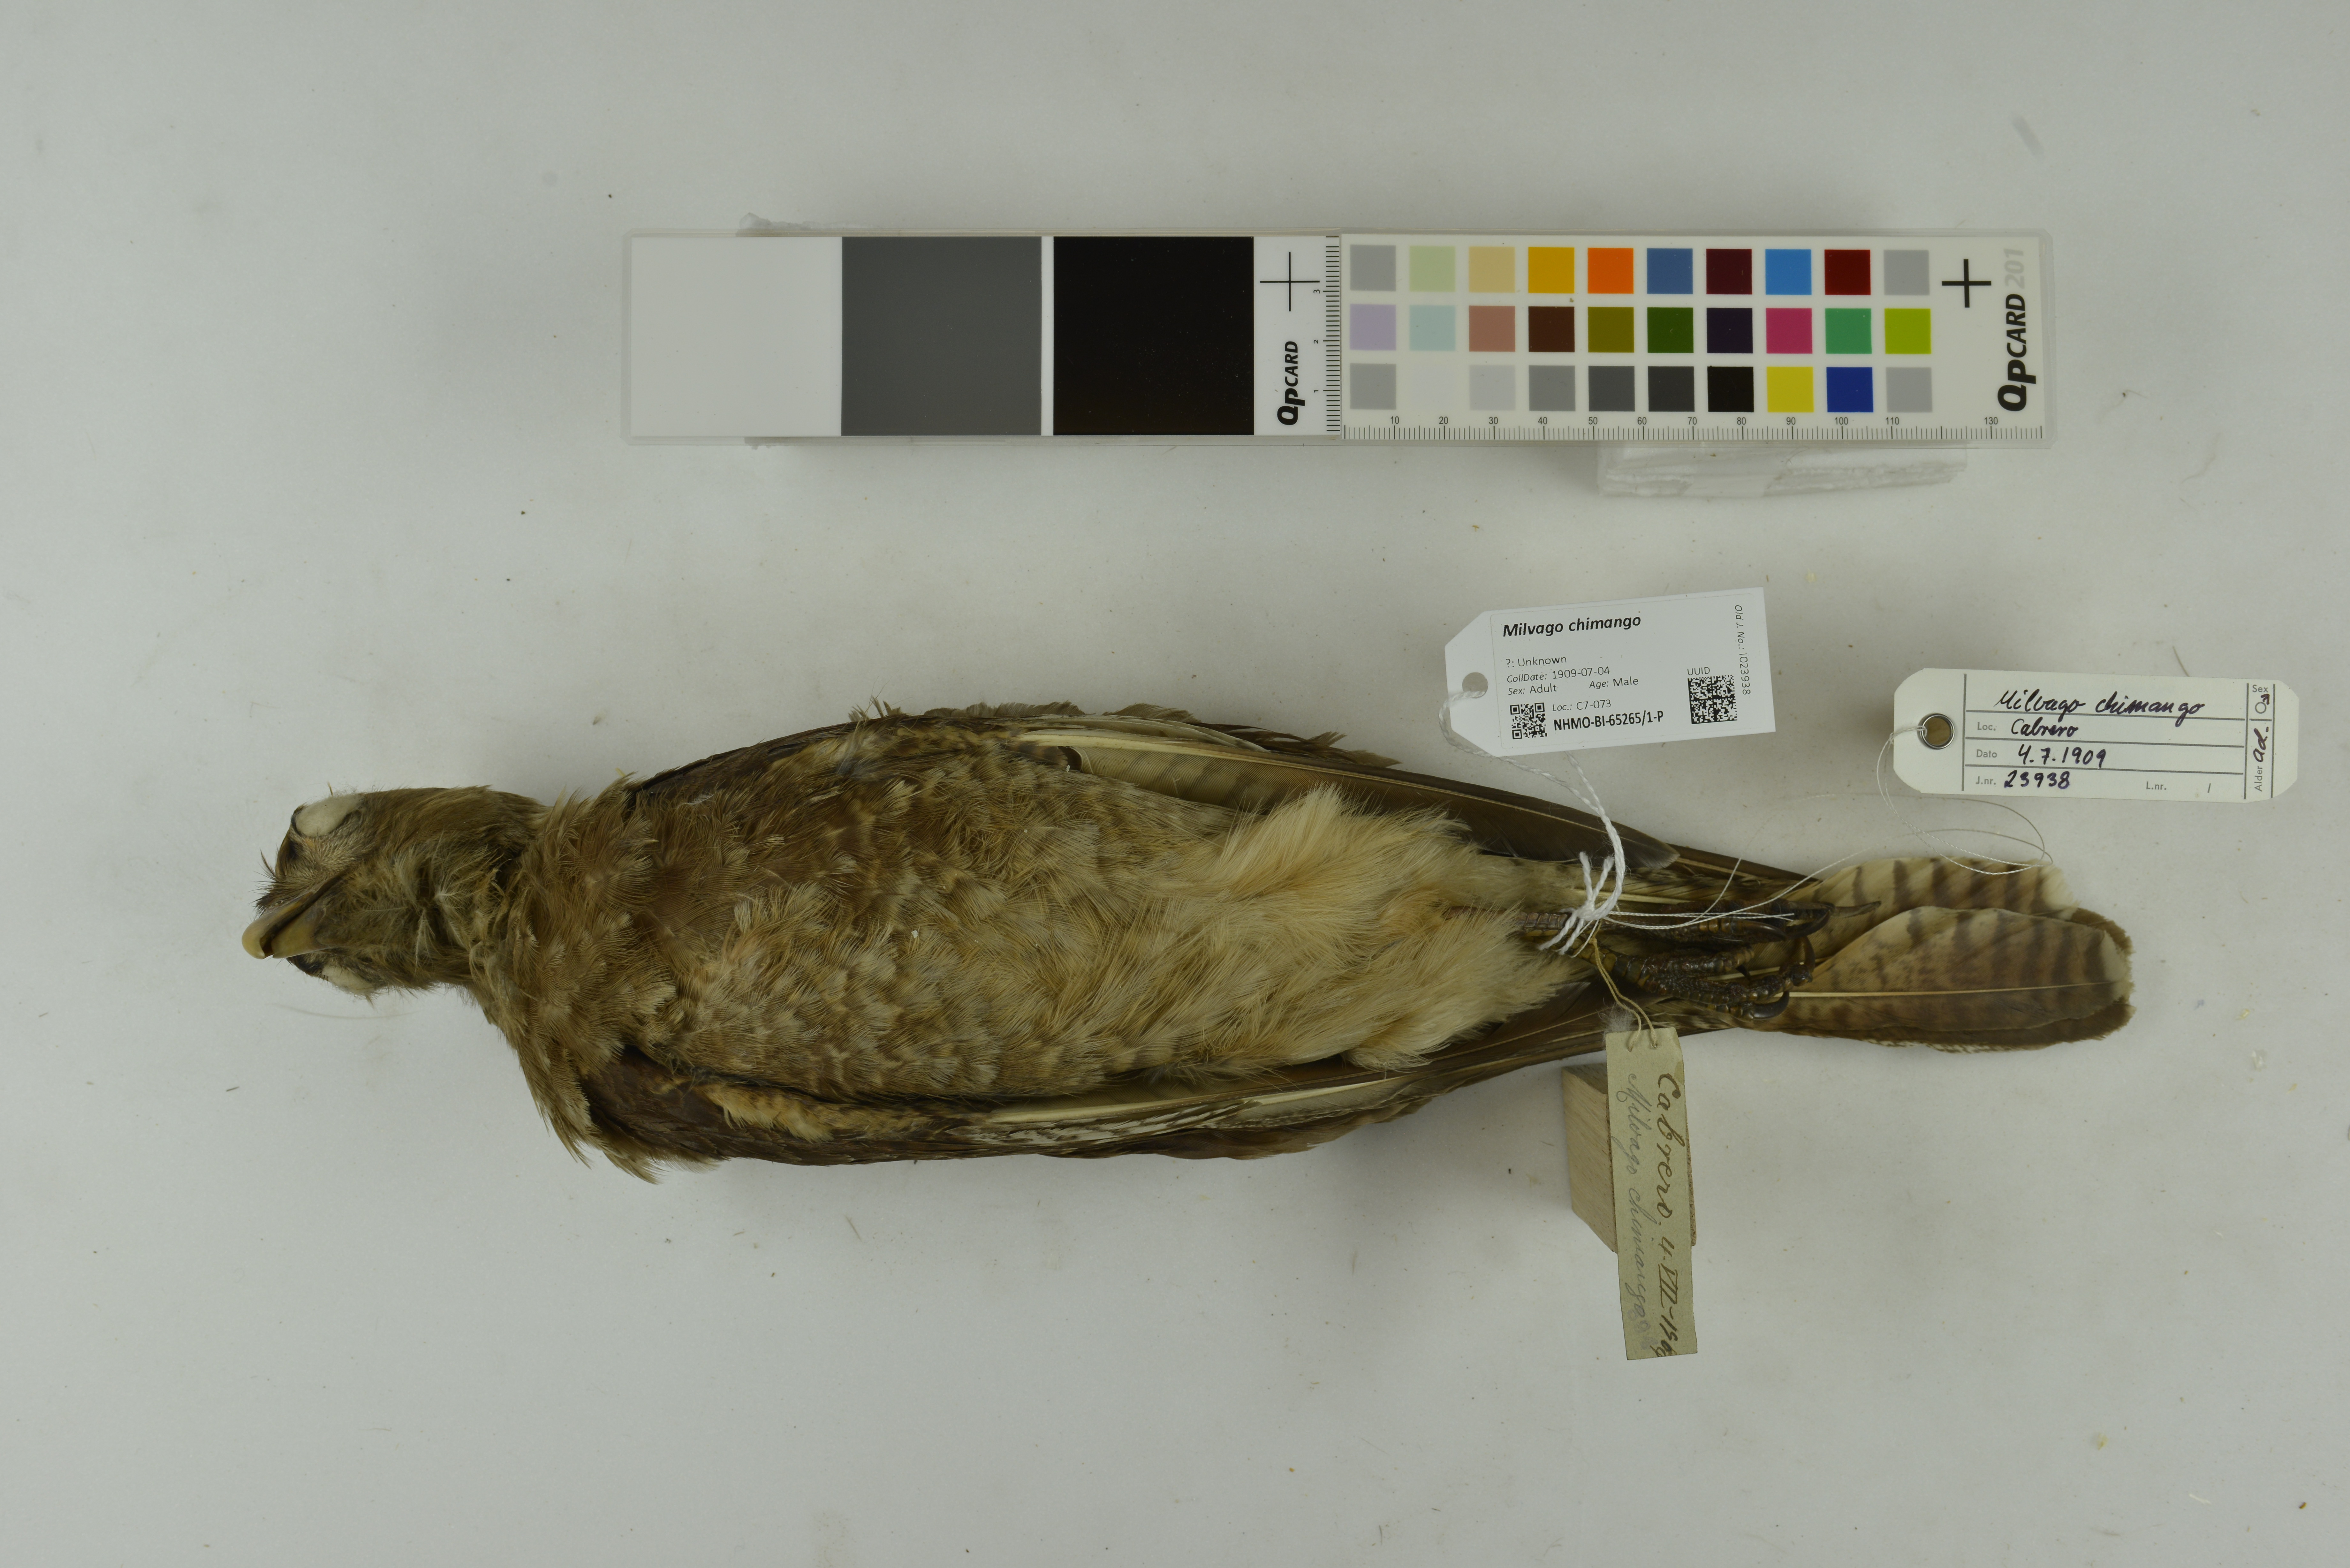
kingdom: Animalia
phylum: Chordata
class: Aves
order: Falconiformes
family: Falconidae
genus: Milvago
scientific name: Milvago chimango
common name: Chimango caracara
